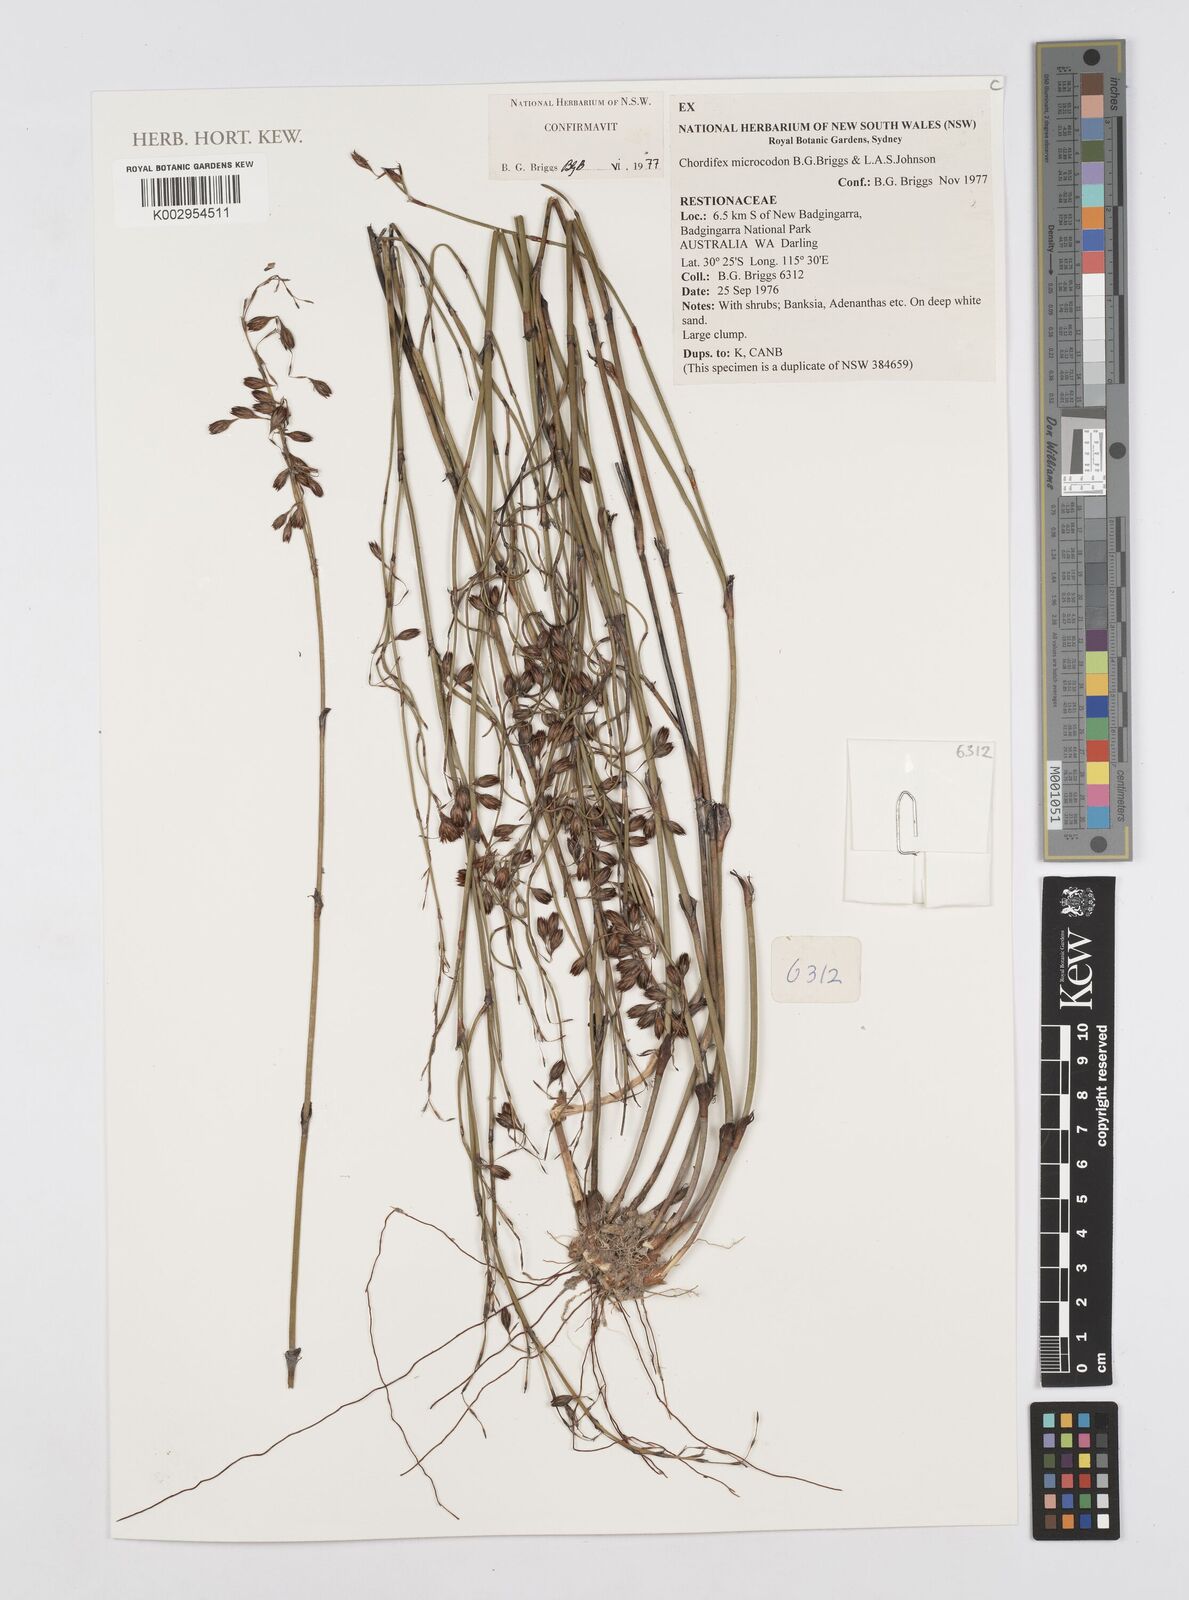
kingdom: Plantae
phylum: Tracheophyta
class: Liliopsida
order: Poales
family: Restionaceae
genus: Chordifex
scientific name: Chordifex microcodon
